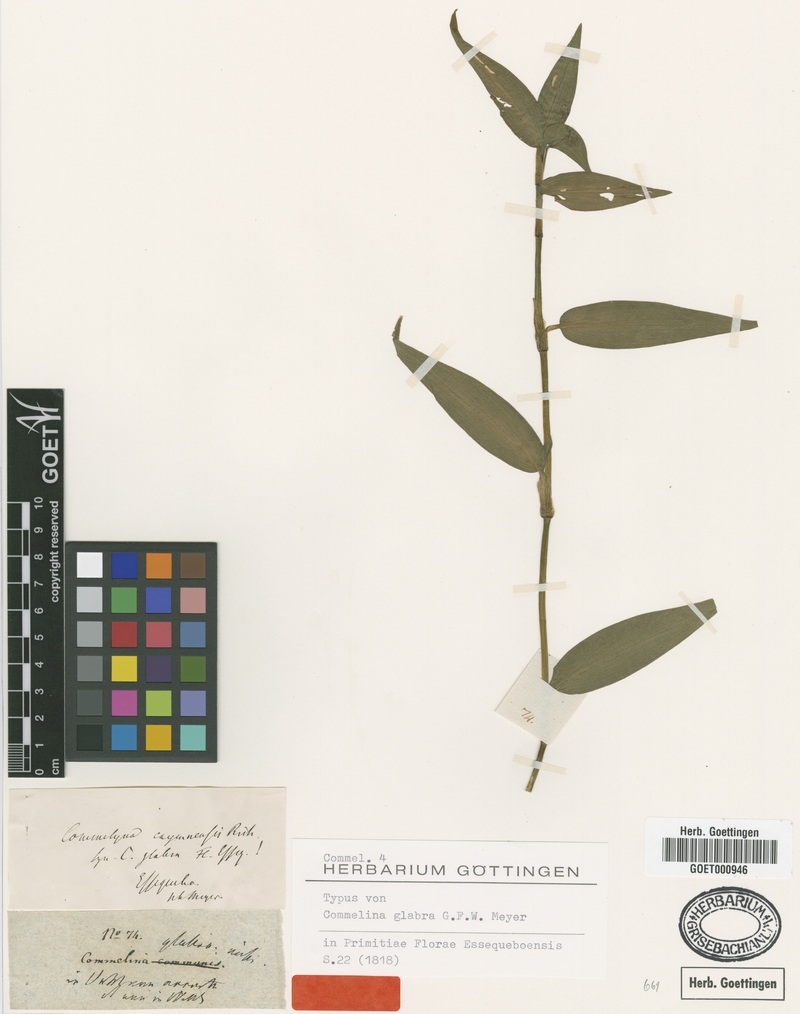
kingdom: Plantae
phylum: Tracheophyta
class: Liliopsida
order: Commelinales
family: Commelinaceae
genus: Commelina
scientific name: Commelina longicaulis
